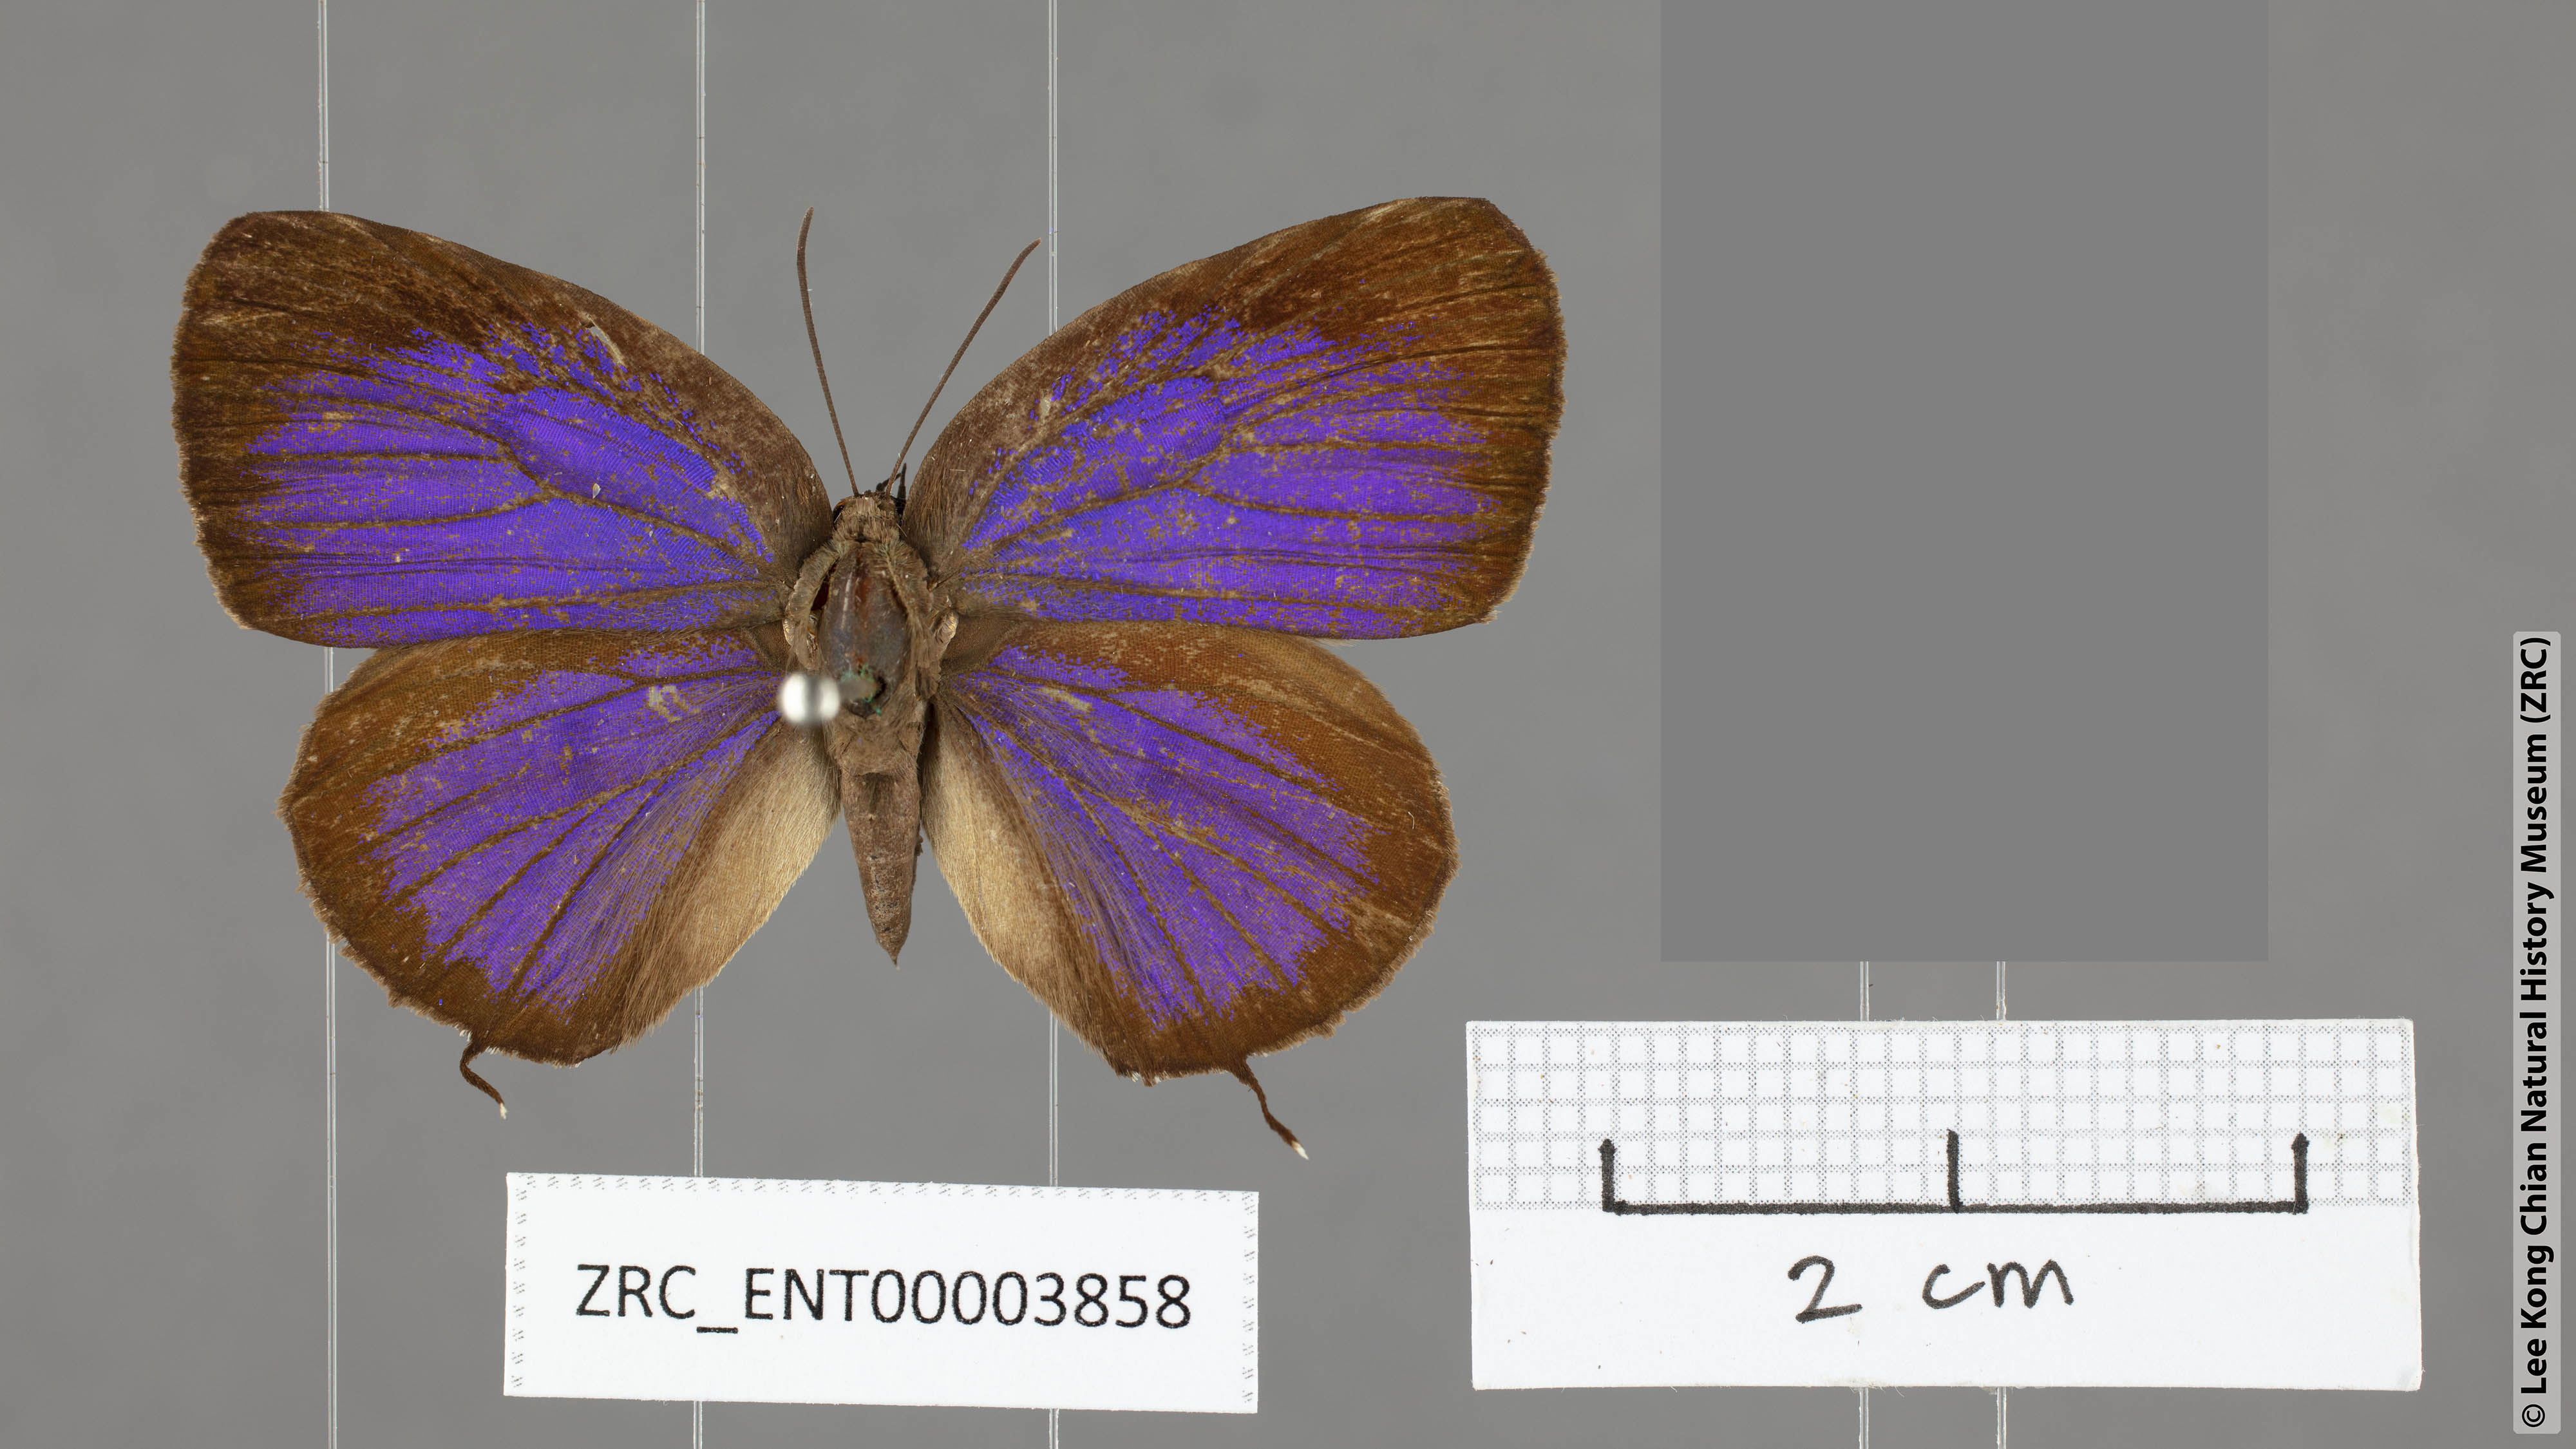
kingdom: Animalia
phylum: Arthropoda
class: Insecta
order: Lepidoptera
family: Lycaenidae
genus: Arhopala
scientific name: Arhopala aroa
